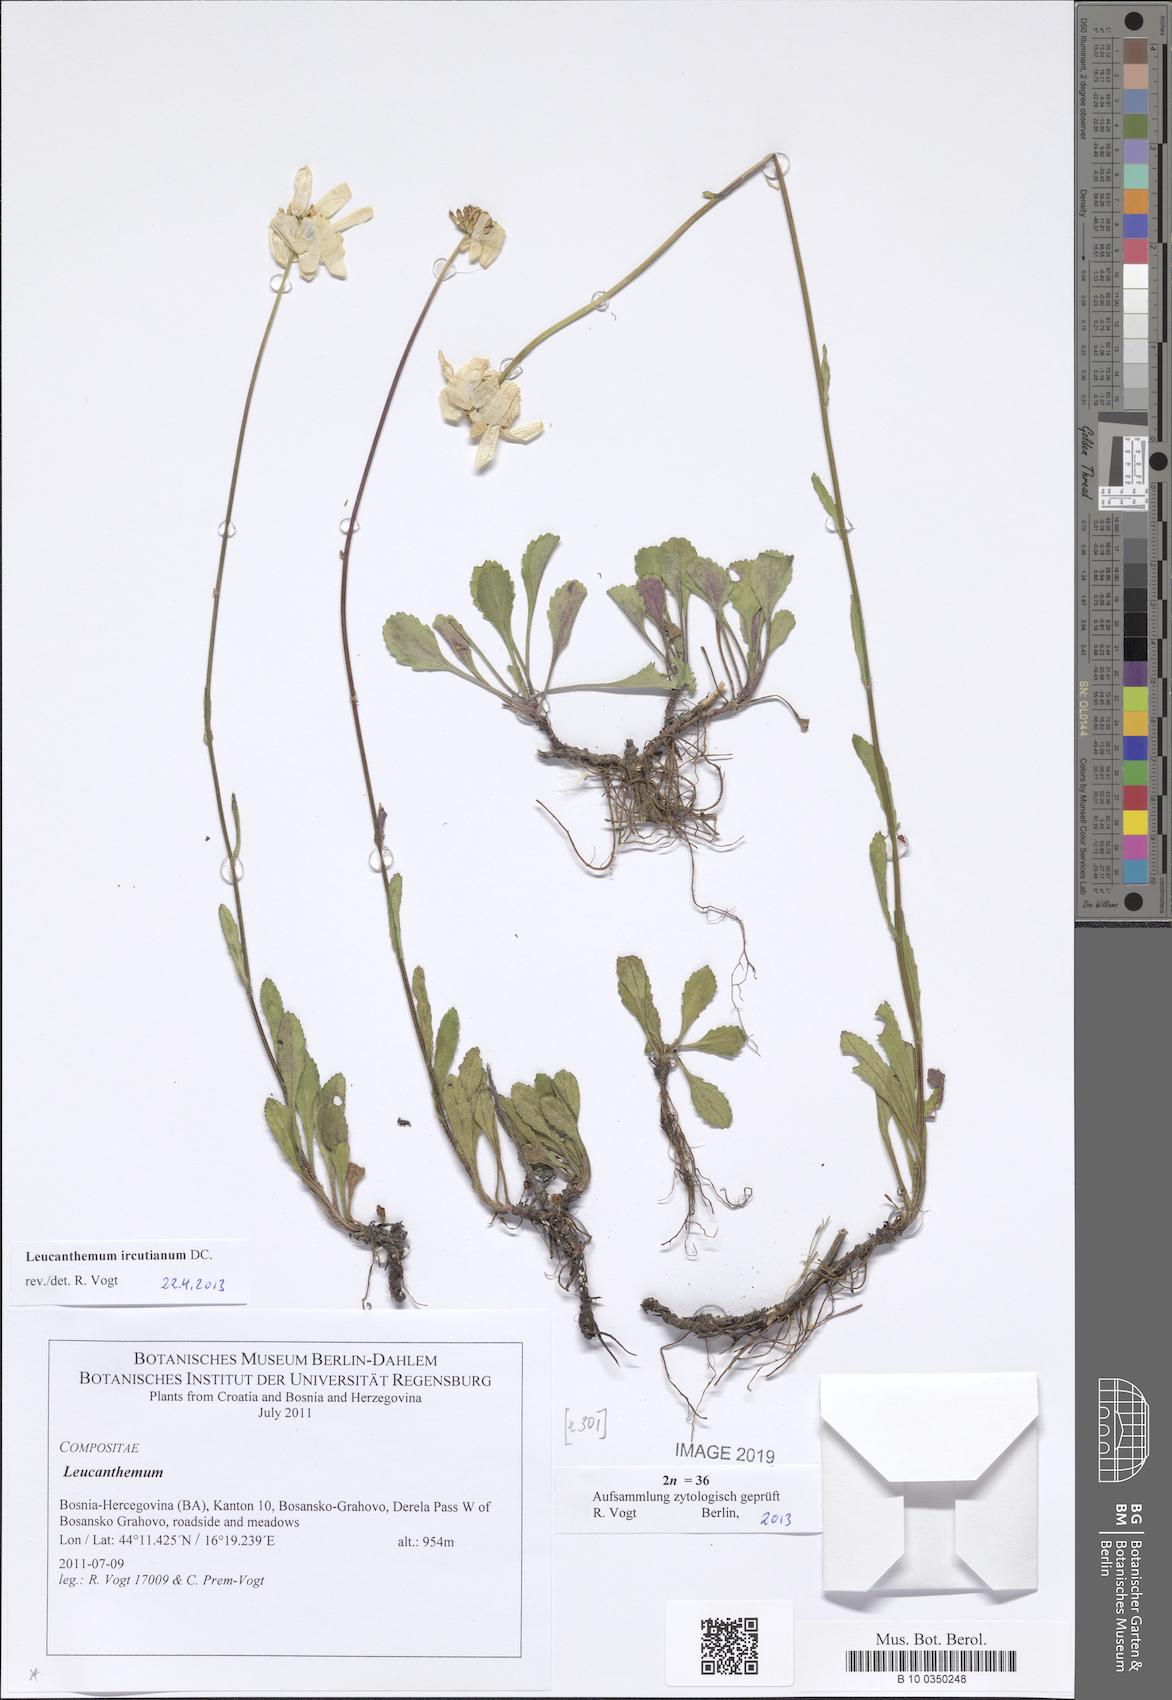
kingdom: Plantae
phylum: Tracheophyta
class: Magnoliopsida
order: Asterales
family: Asteraceae
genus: Leucanthemum
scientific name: Leucanthemum ircutianum
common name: Daisy
